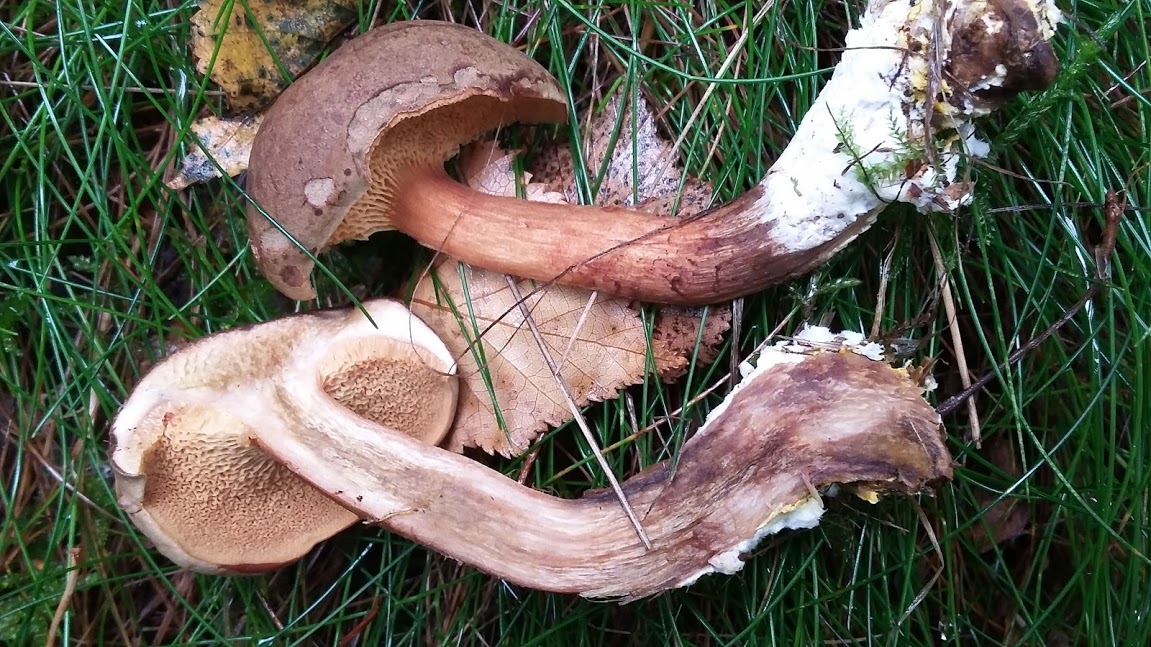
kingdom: Fungi
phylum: Basidiomycota
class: Agaricomycetes
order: Boletales
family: Boletaceae
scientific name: Boletaceae
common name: rørhatfamilien
